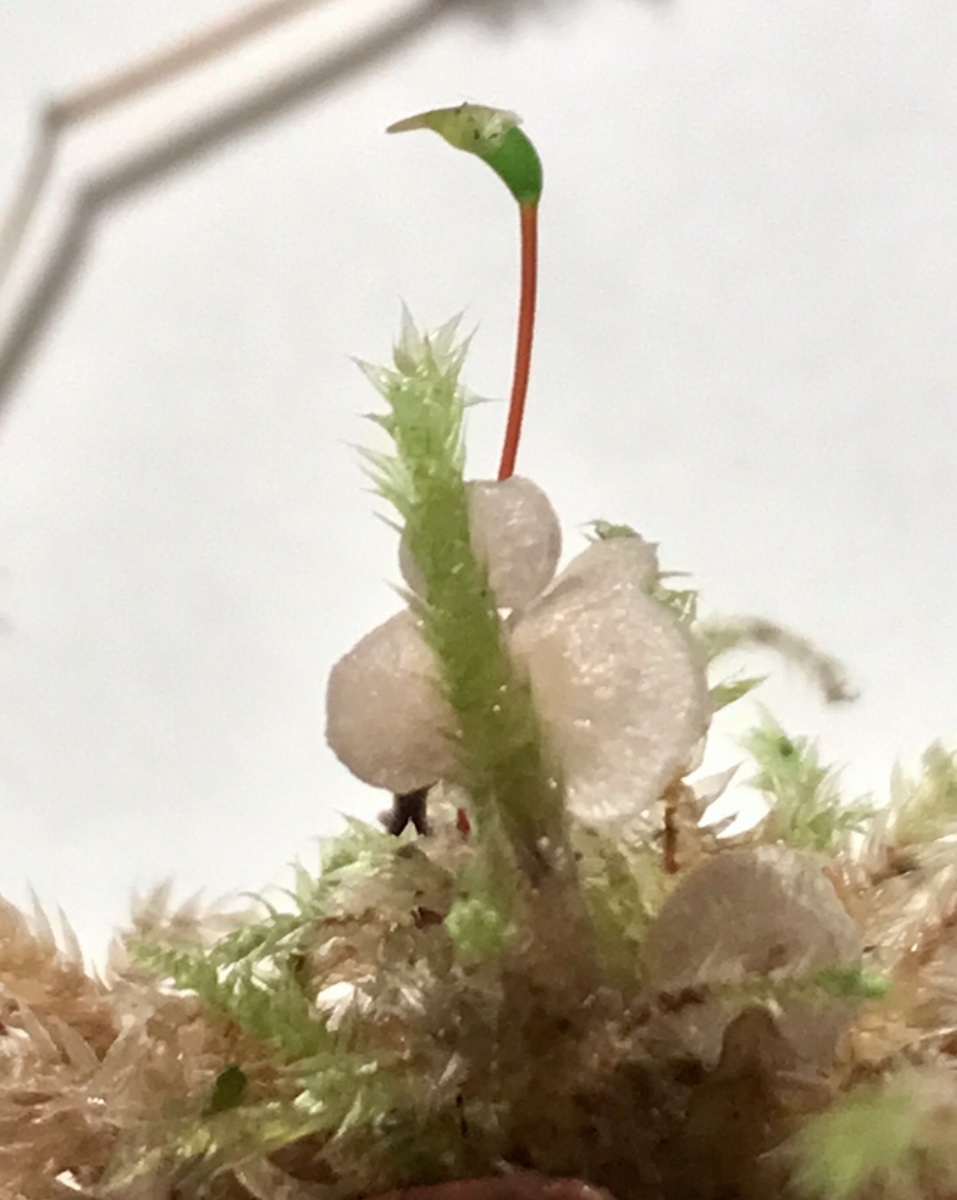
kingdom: Fungi
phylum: Basidiomycota
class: Agaricomycetes
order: Agaricales
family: Hygrophoraceae
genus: Arrhenia
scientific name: Arrhenia retiruga
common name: lille fontænehat
